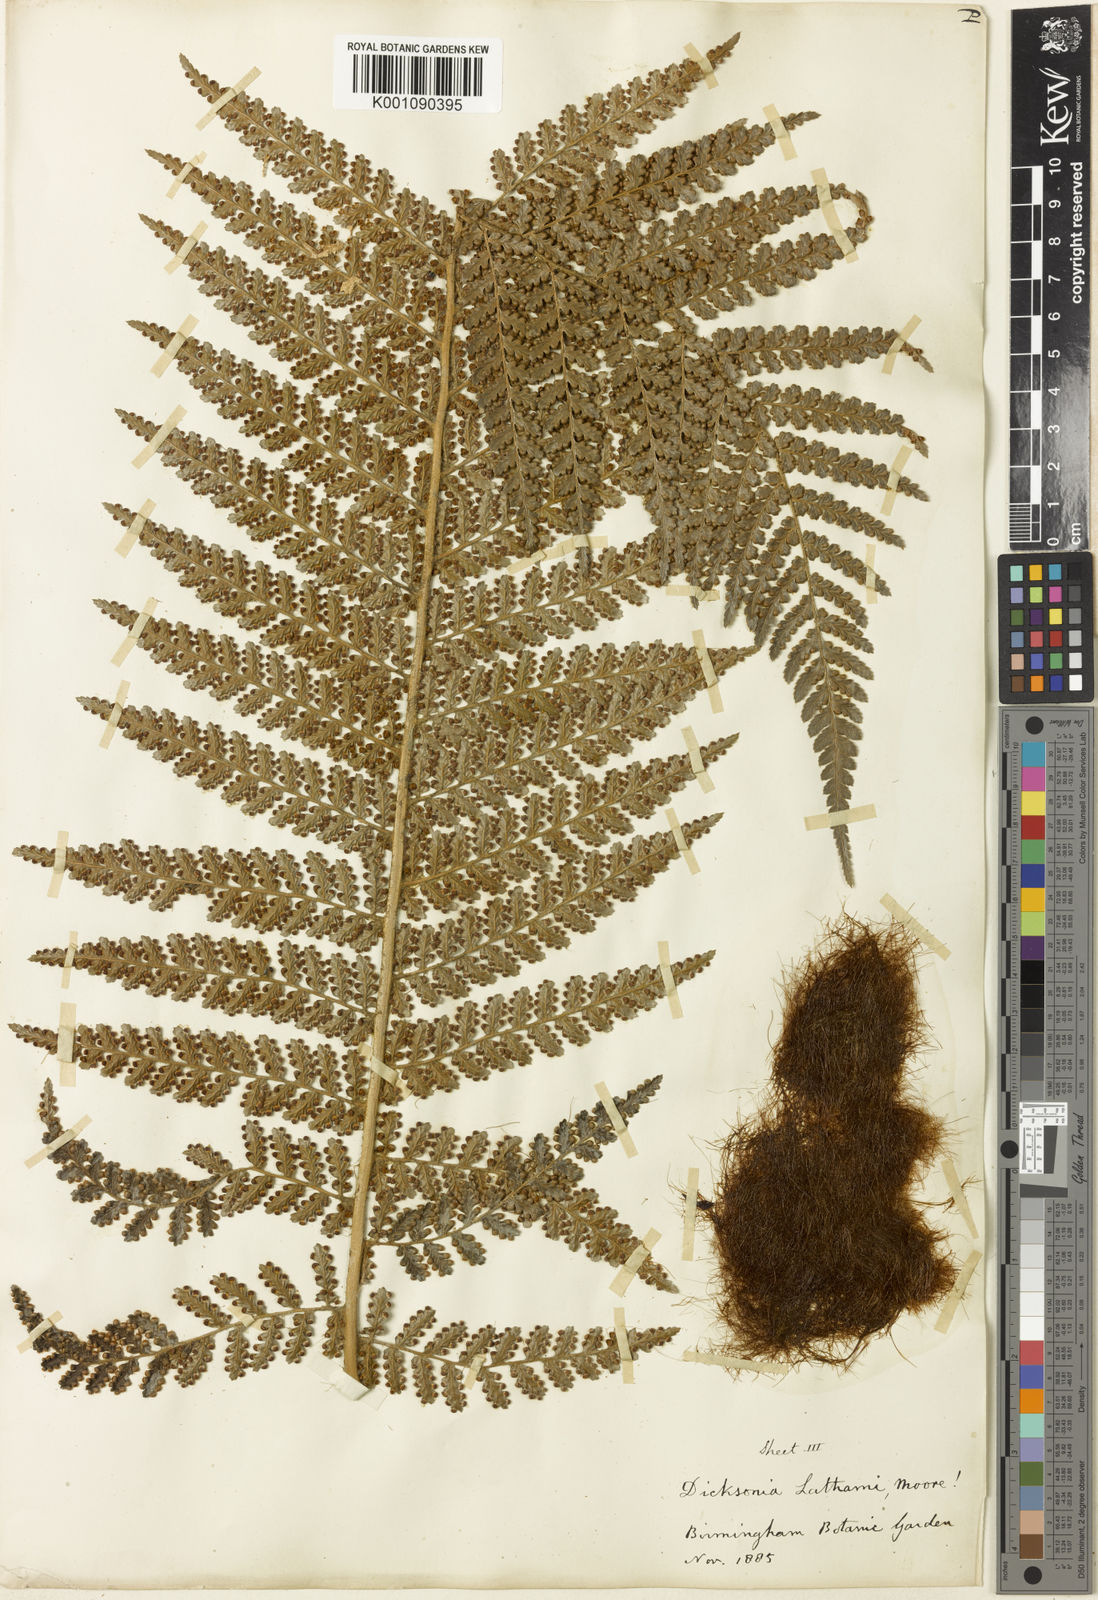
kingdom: Plantae
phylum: Tracheophyta
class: Polypodiopsida
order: Cyatheales
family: Dicksoniaceae
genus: Dicksonia
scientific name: Dicksonia lathamii
